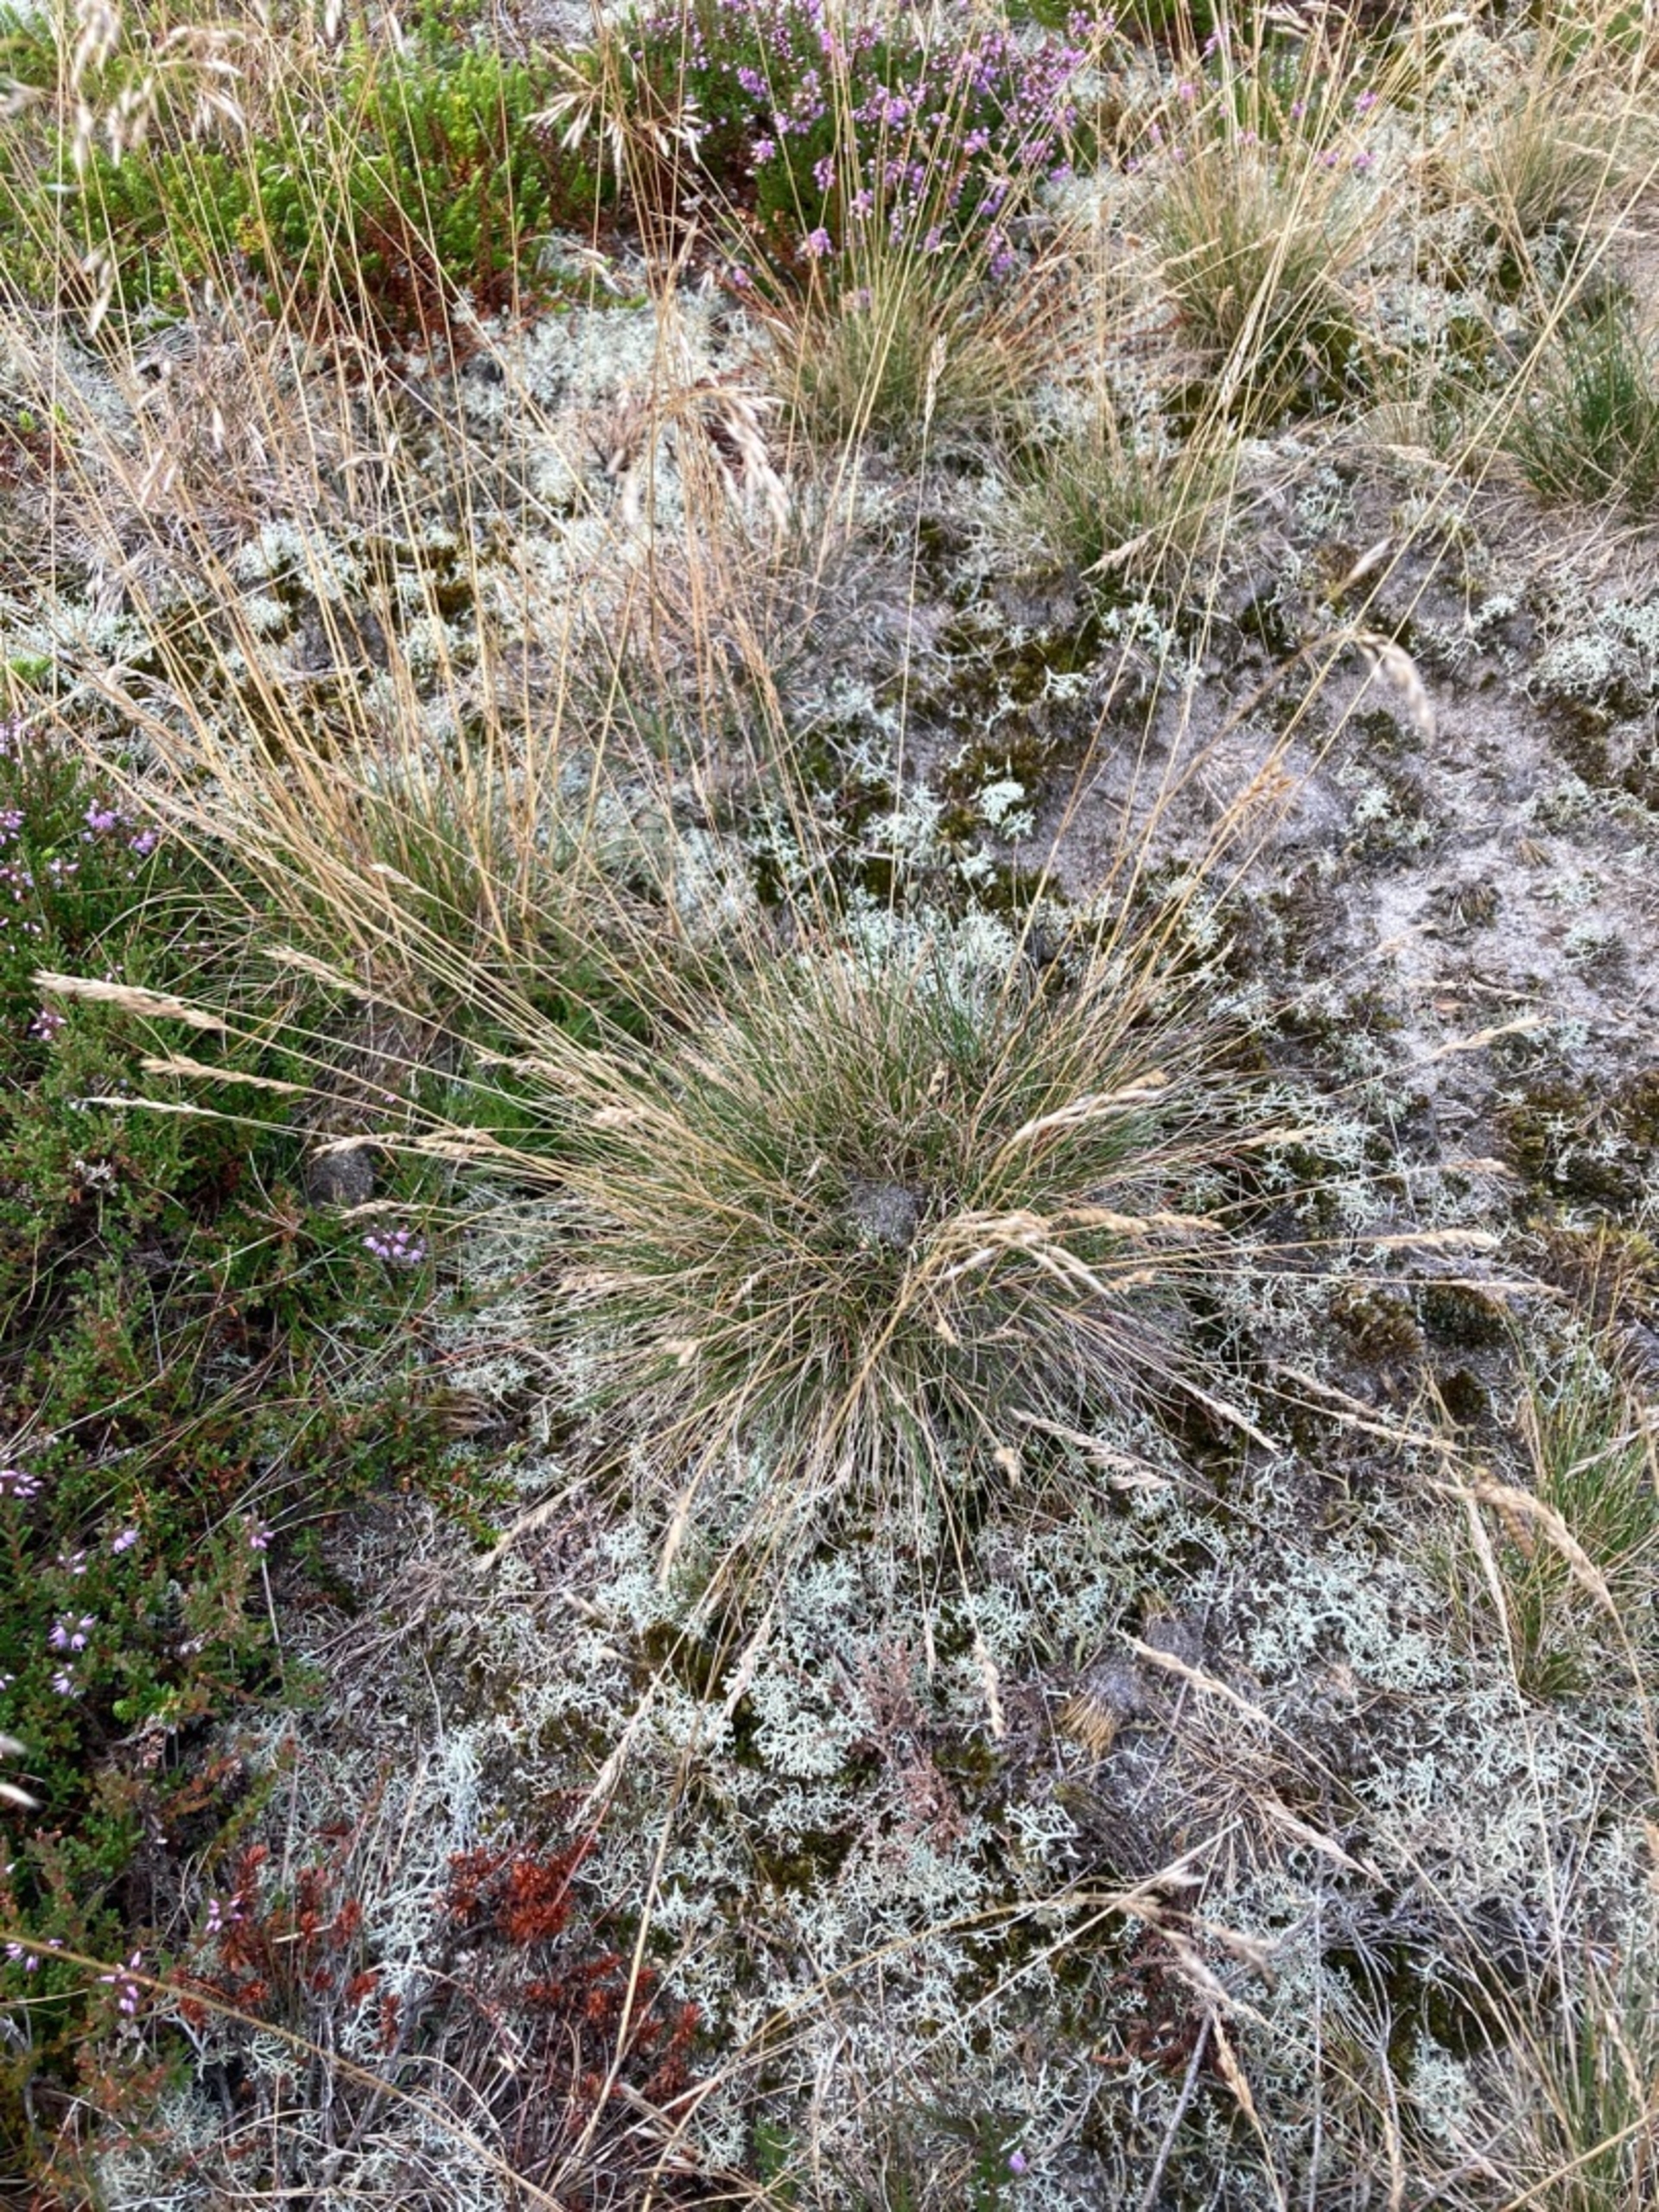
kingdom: Plantae
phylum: Tracheophyta
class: Liliopsida
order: Poales
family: Poaceae
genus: Festuca
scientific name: Festuca ovina
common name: Fåre-svingel
